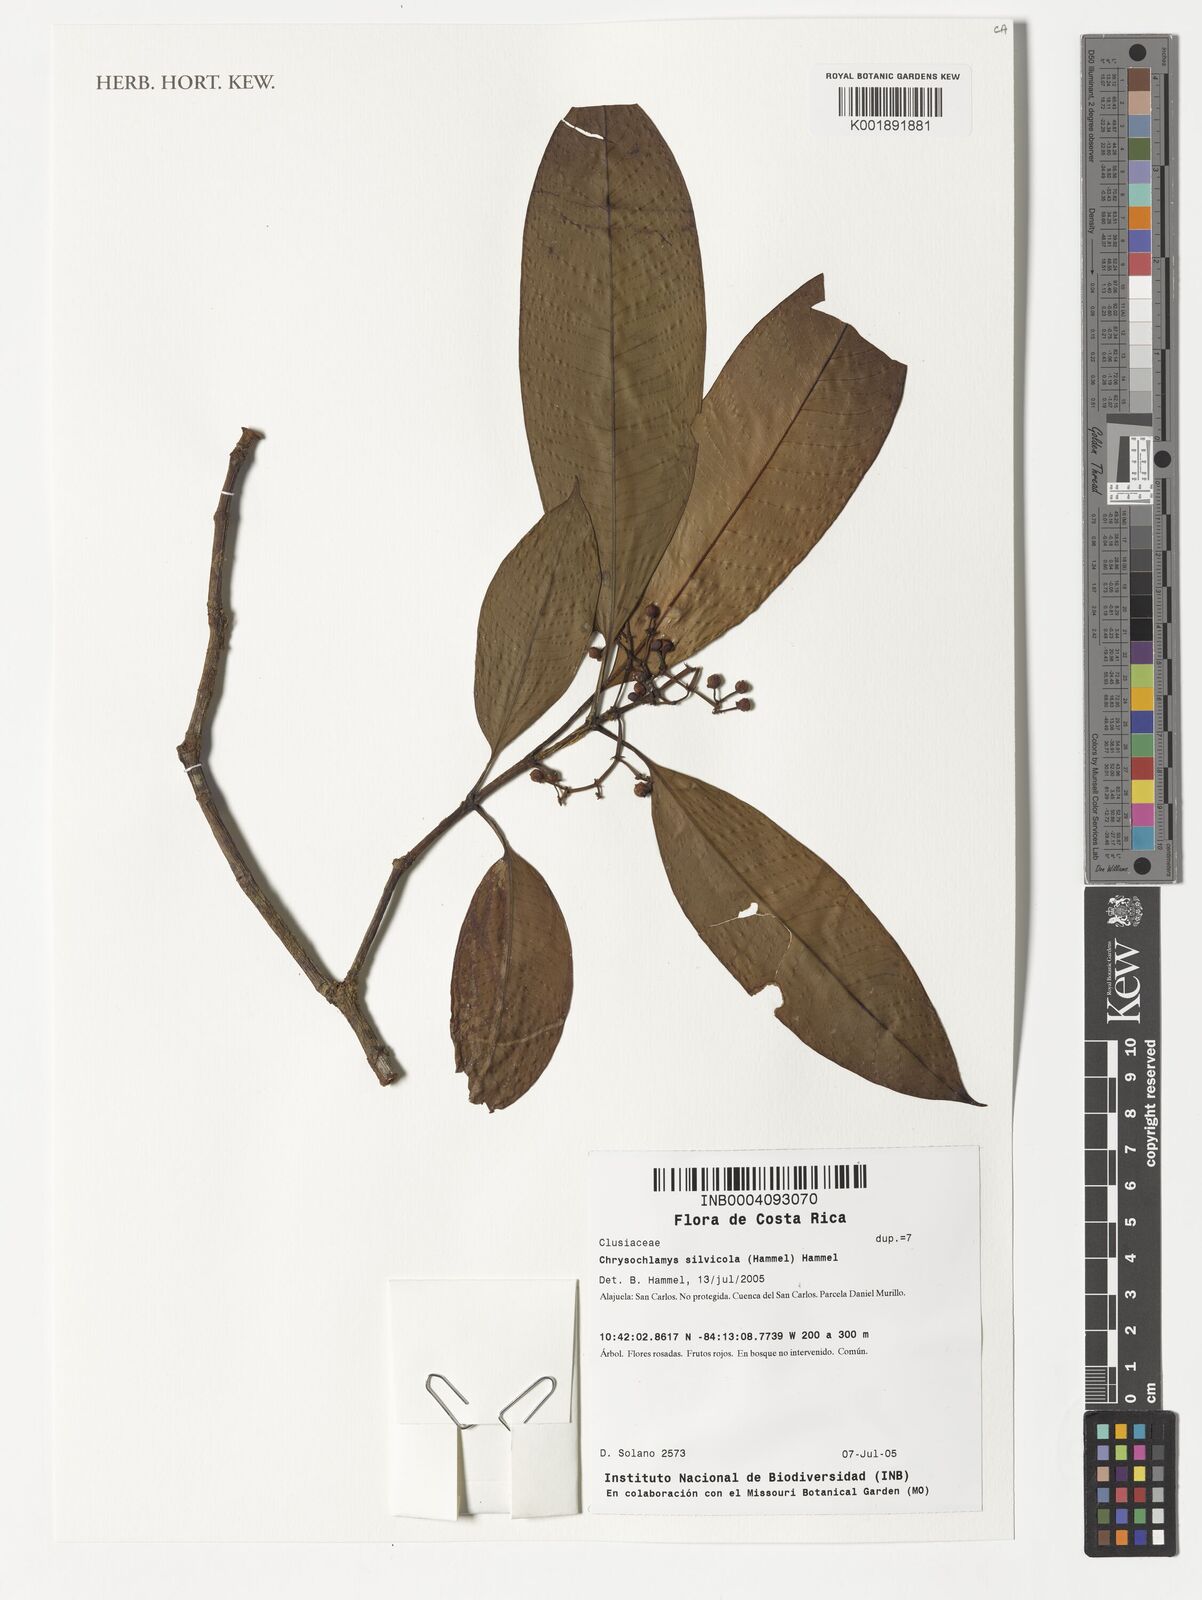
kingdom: Plantae
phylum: Tracheophyta
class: Magnoliopsida
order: Malpighiales
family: Clusiaceae
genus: Chrysochlamys
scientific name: Chrysochlamys silvicola
